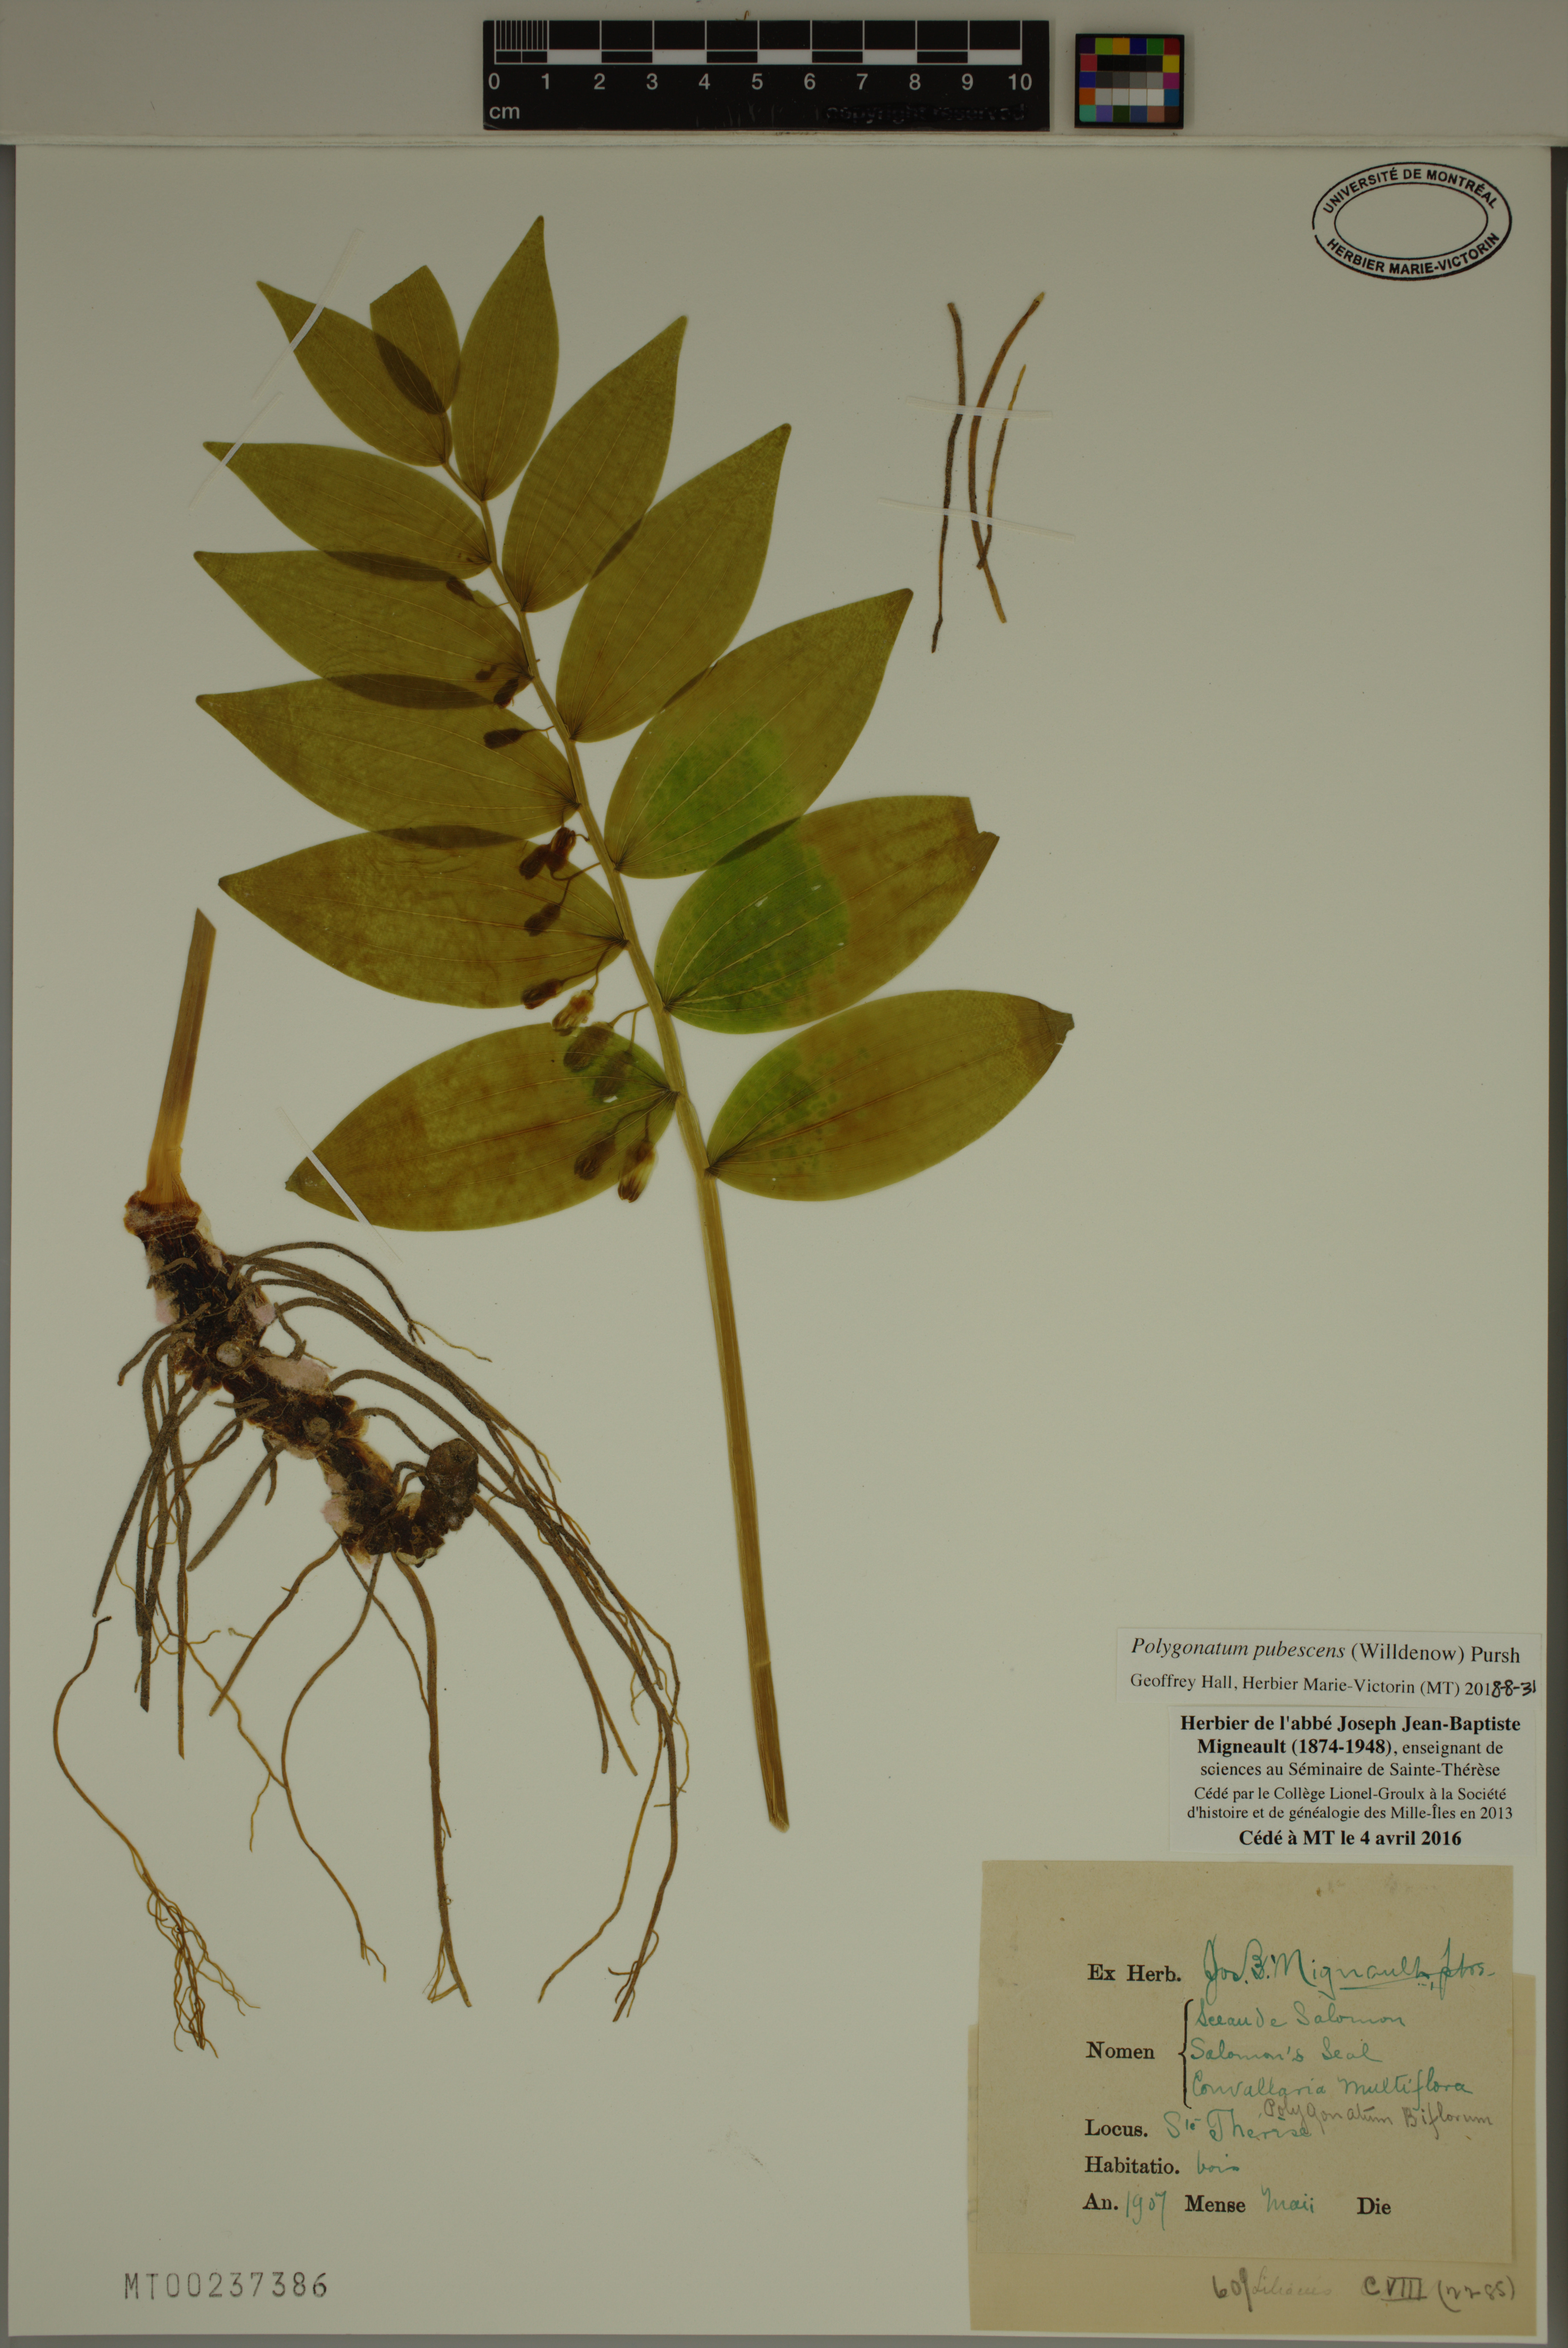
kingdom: Plantae
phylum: Tracheophyta
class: Liliopsida
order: Asparagales
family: Asparagaceae
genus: Polygonatum
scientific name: Polygonatum pubescens
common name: Downy solomon's seal
